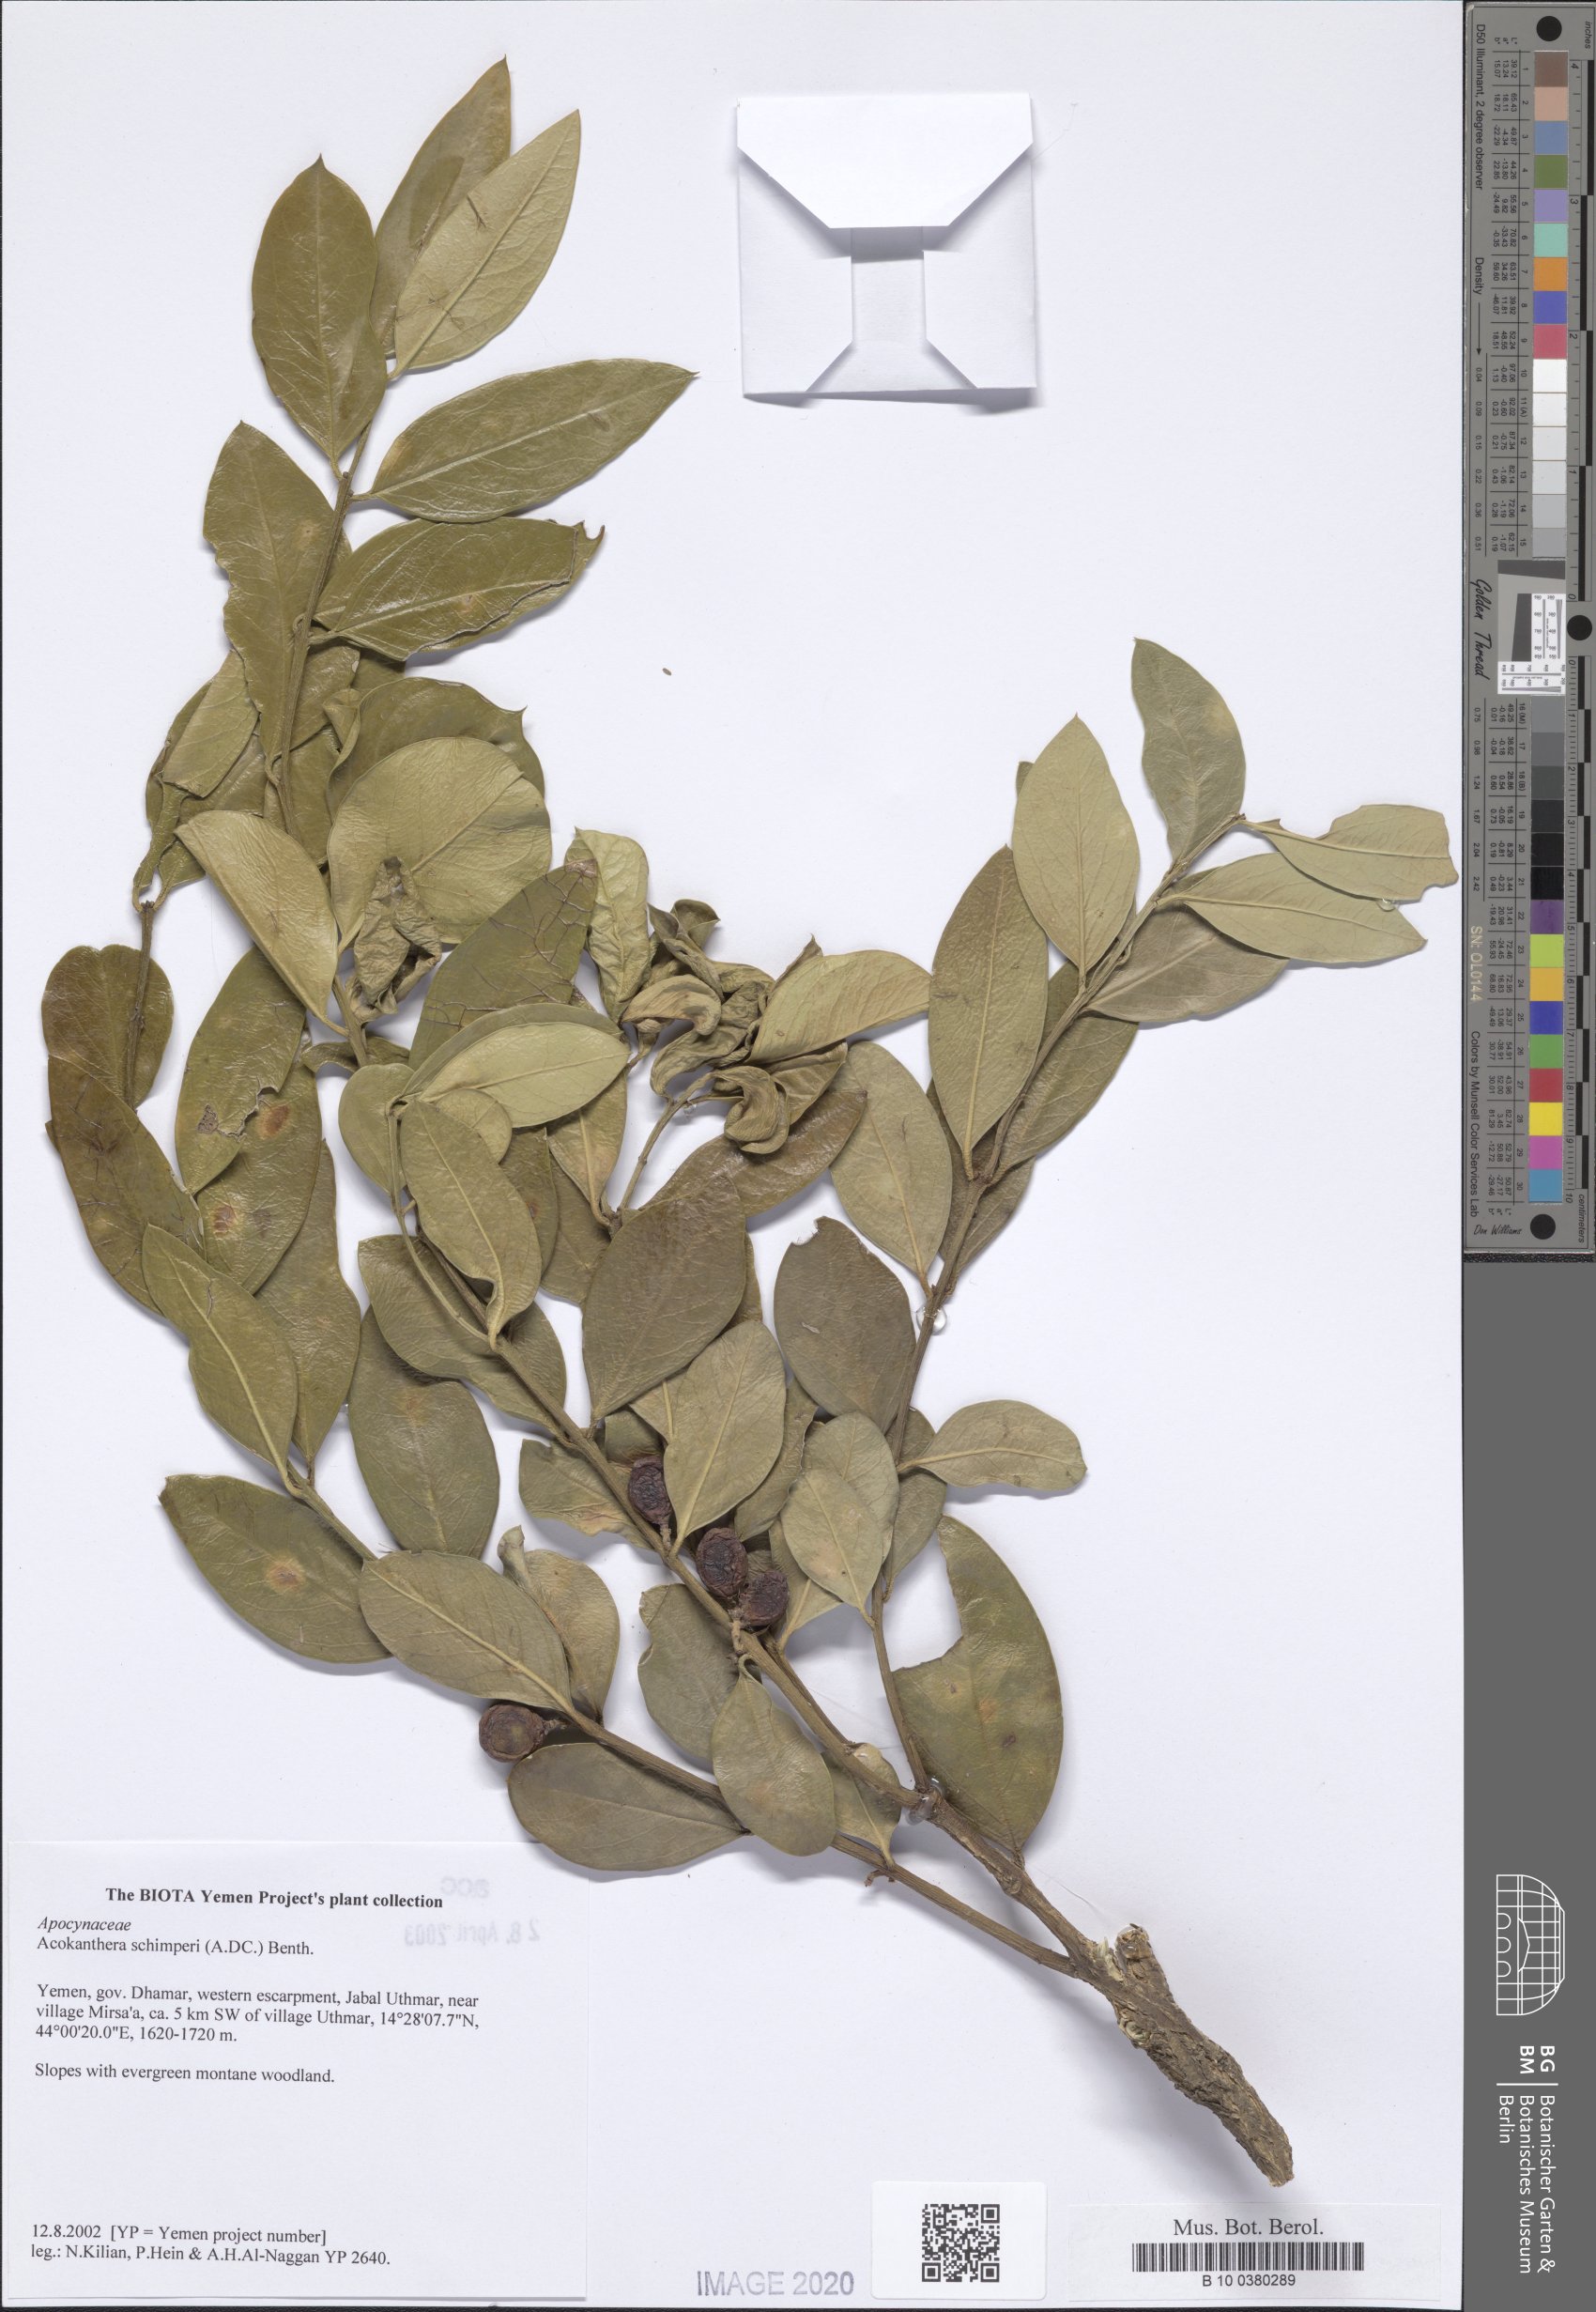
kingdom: Plantae
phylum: Tracheophyta
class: Magnoliopsida
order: Gentianales
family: Apocynaceae
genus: Acokanthera
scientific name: Acokanthera schimperi
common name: Arrow-poison-tree
